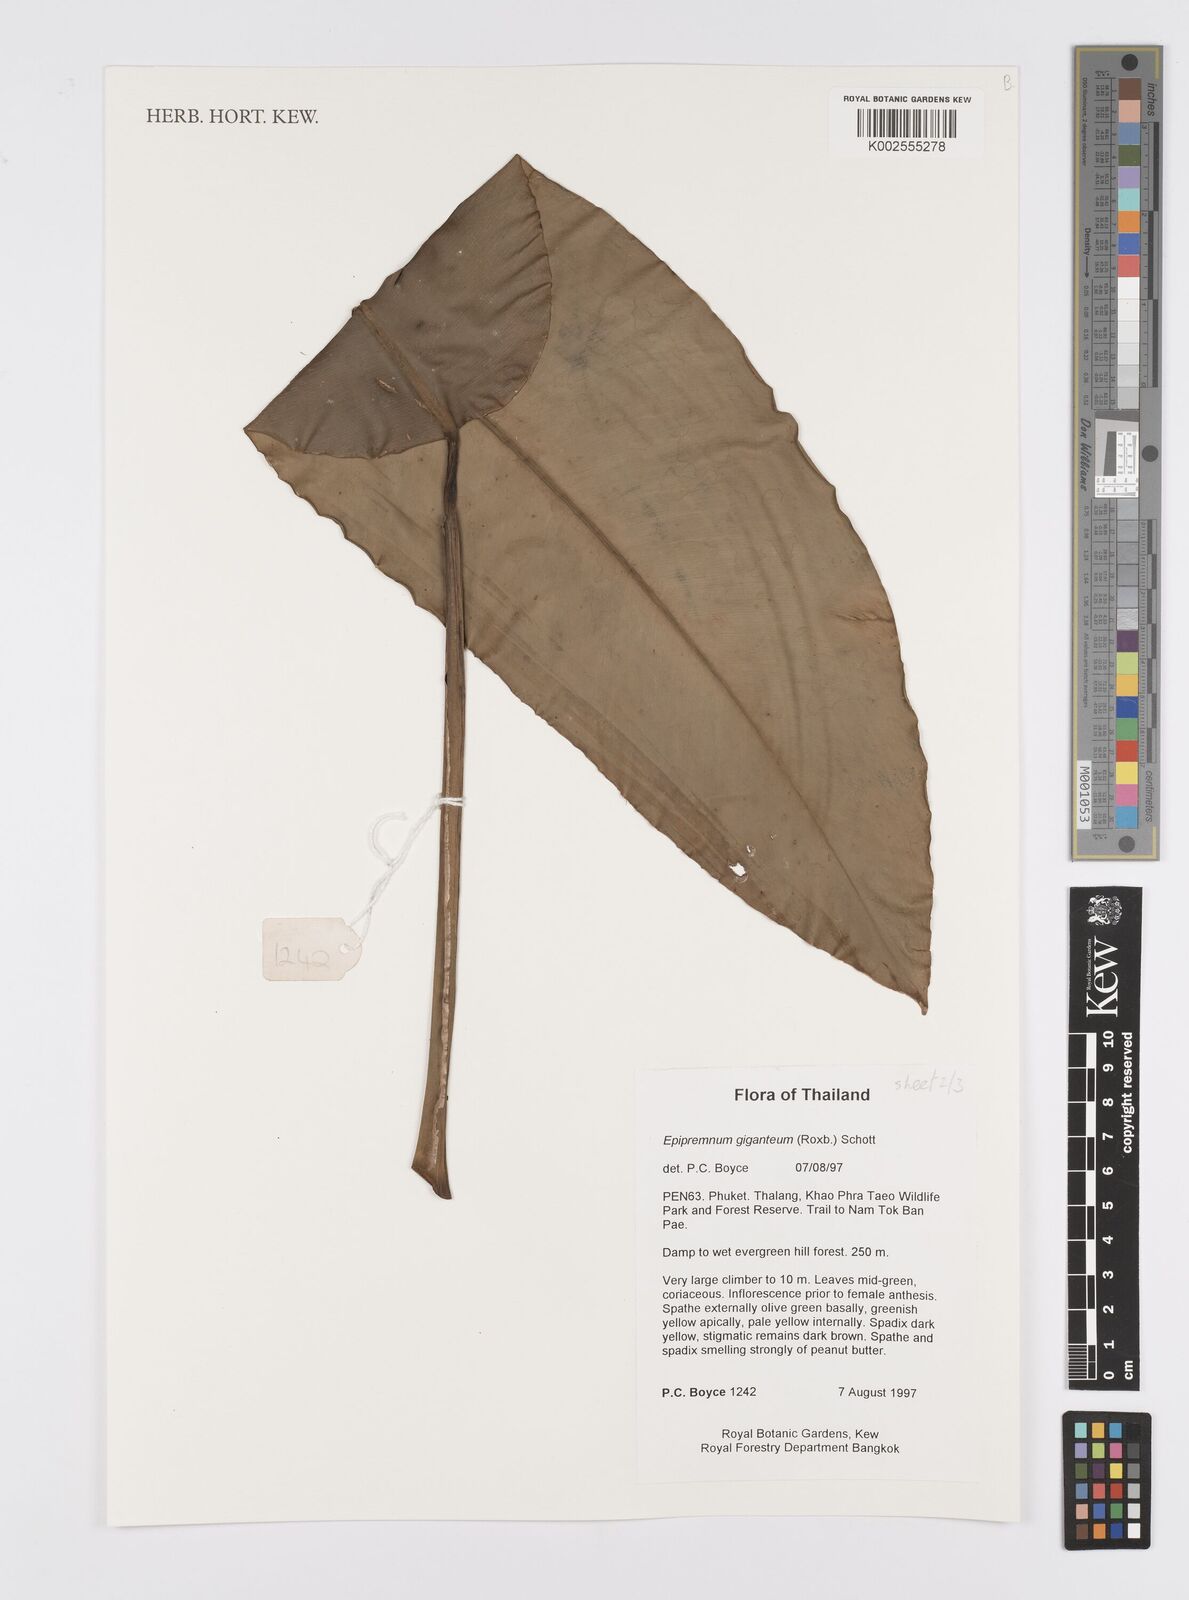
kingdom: Plantae
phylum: Tracheophyta
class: Liliopsida
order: Alismatales
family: Araceae
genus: Epipremnum
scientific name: Epipremnum giganteum
